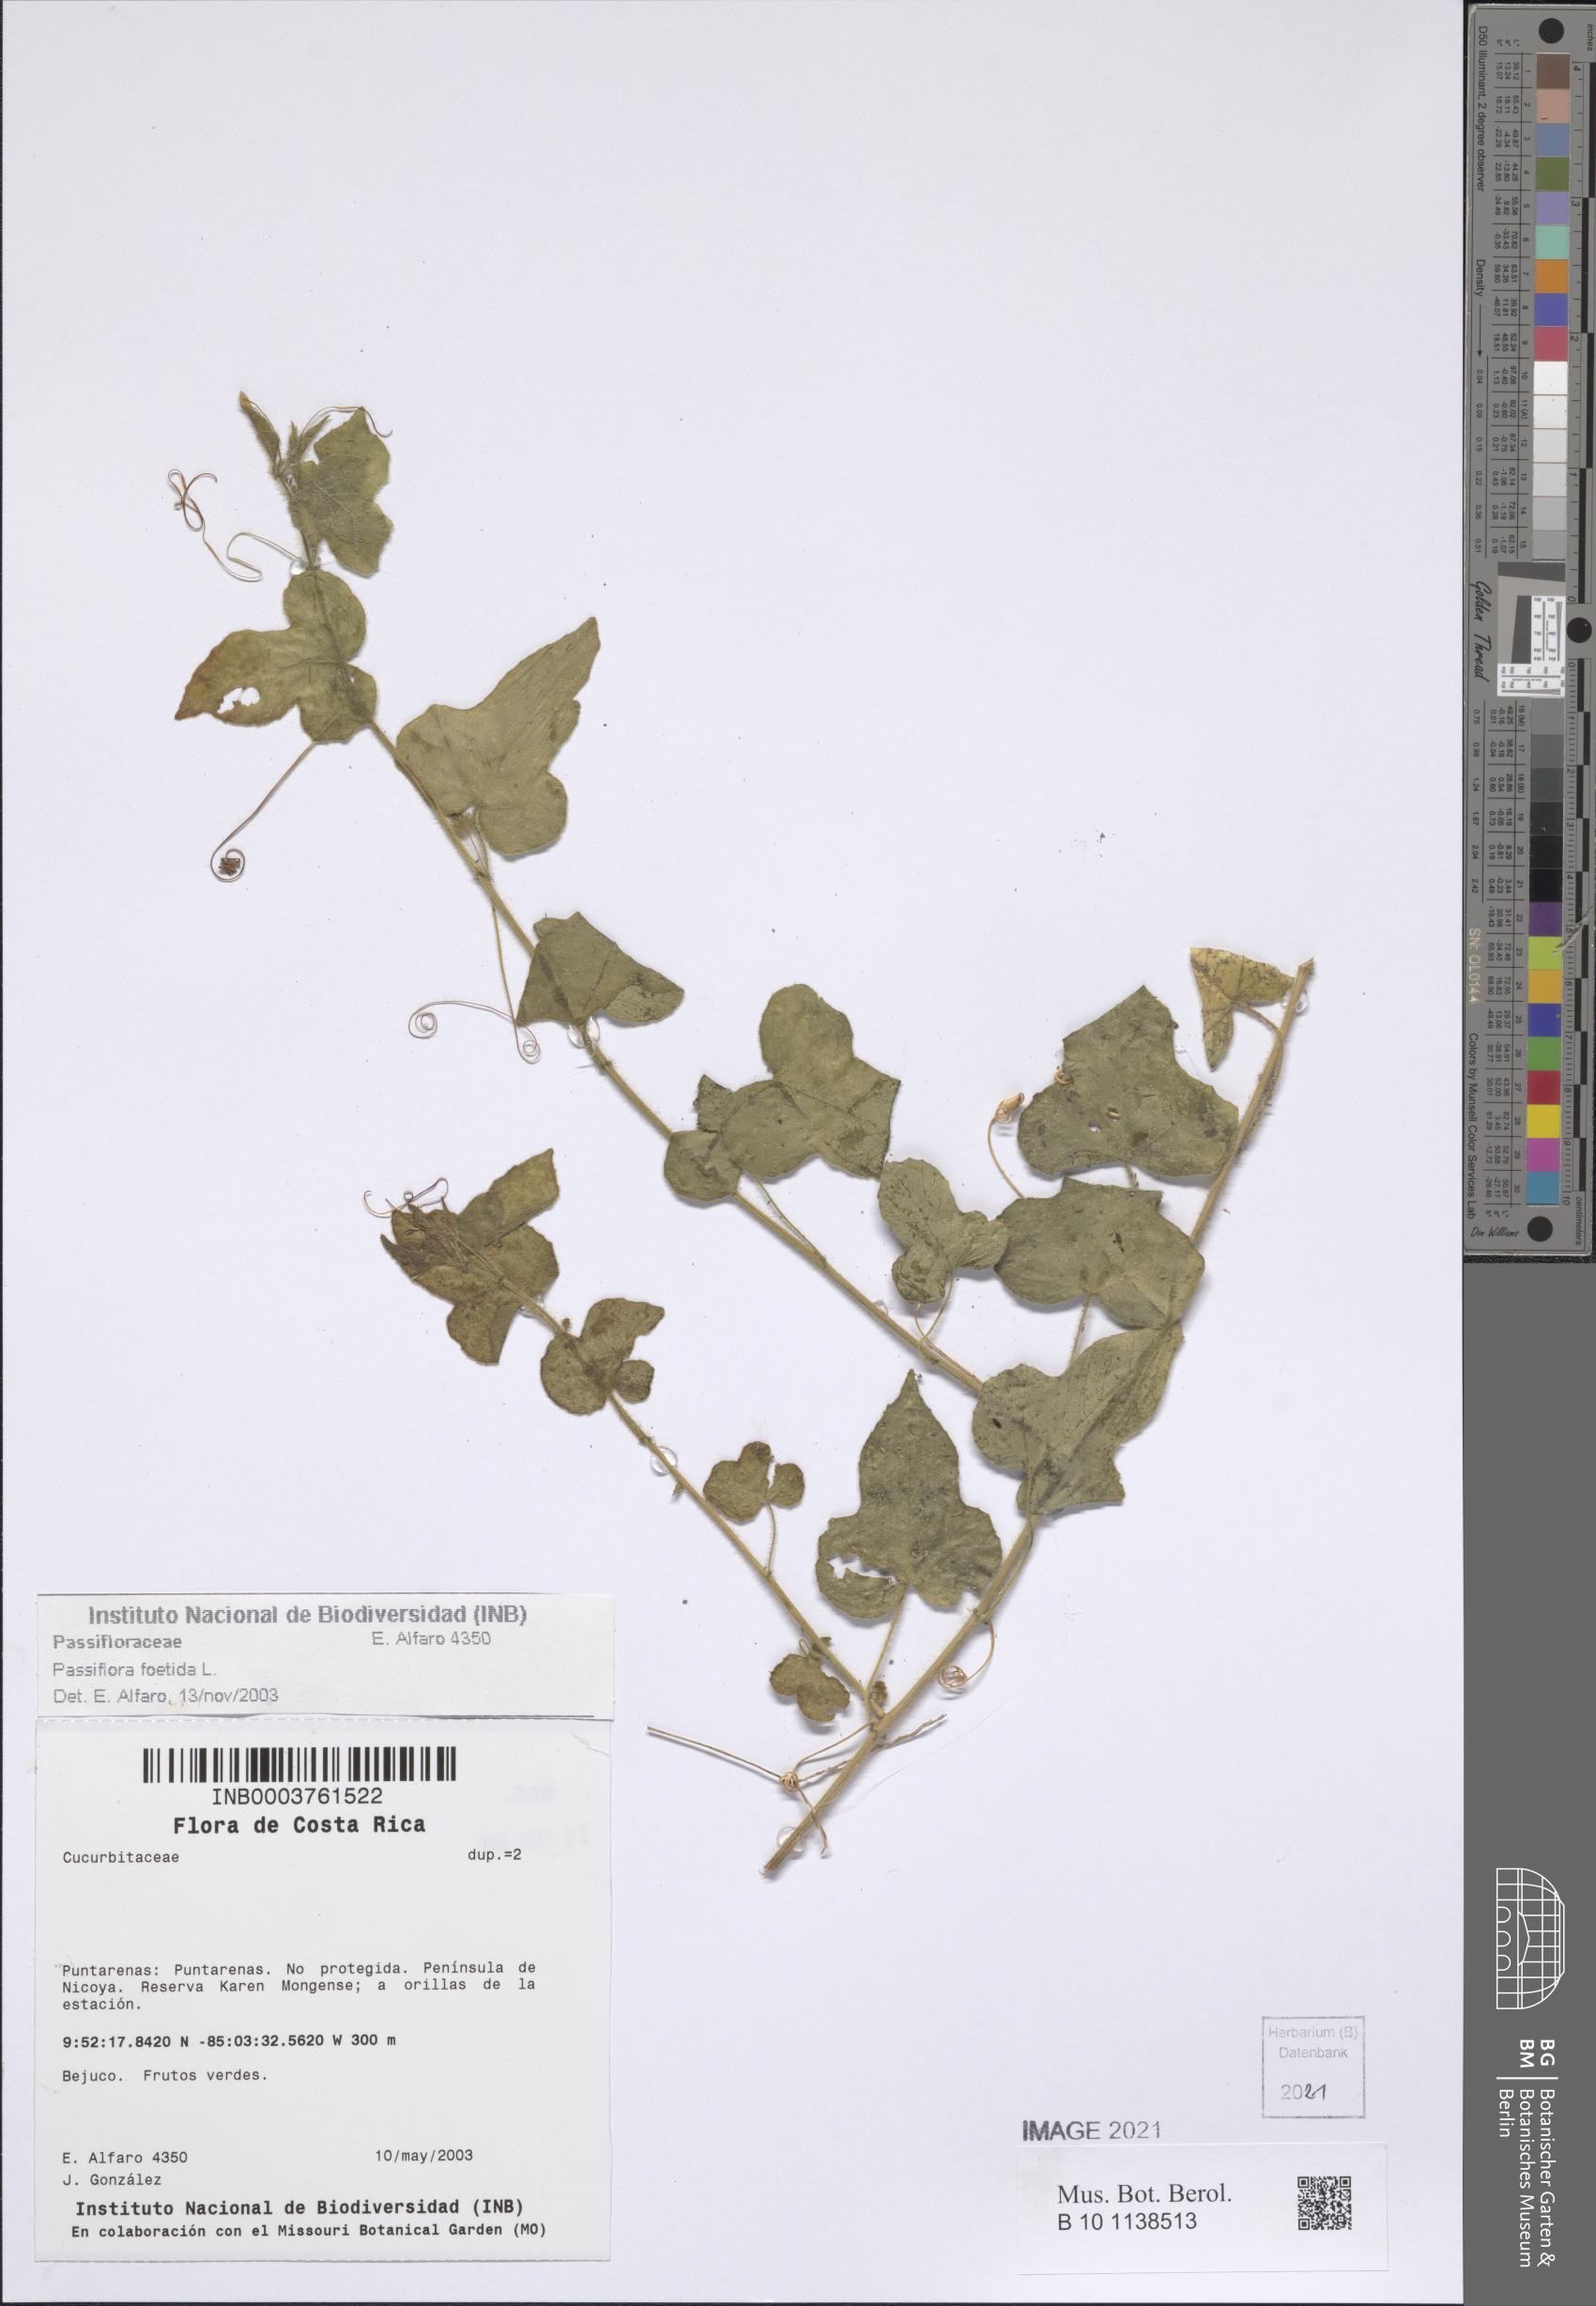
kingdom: Plantae
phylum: Tracheophyta
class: Magnoliopsida
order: Malpighiales
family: Passifloraceae
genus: Passiflora
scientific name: Passiflora foetida
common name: Fetid passionflower
